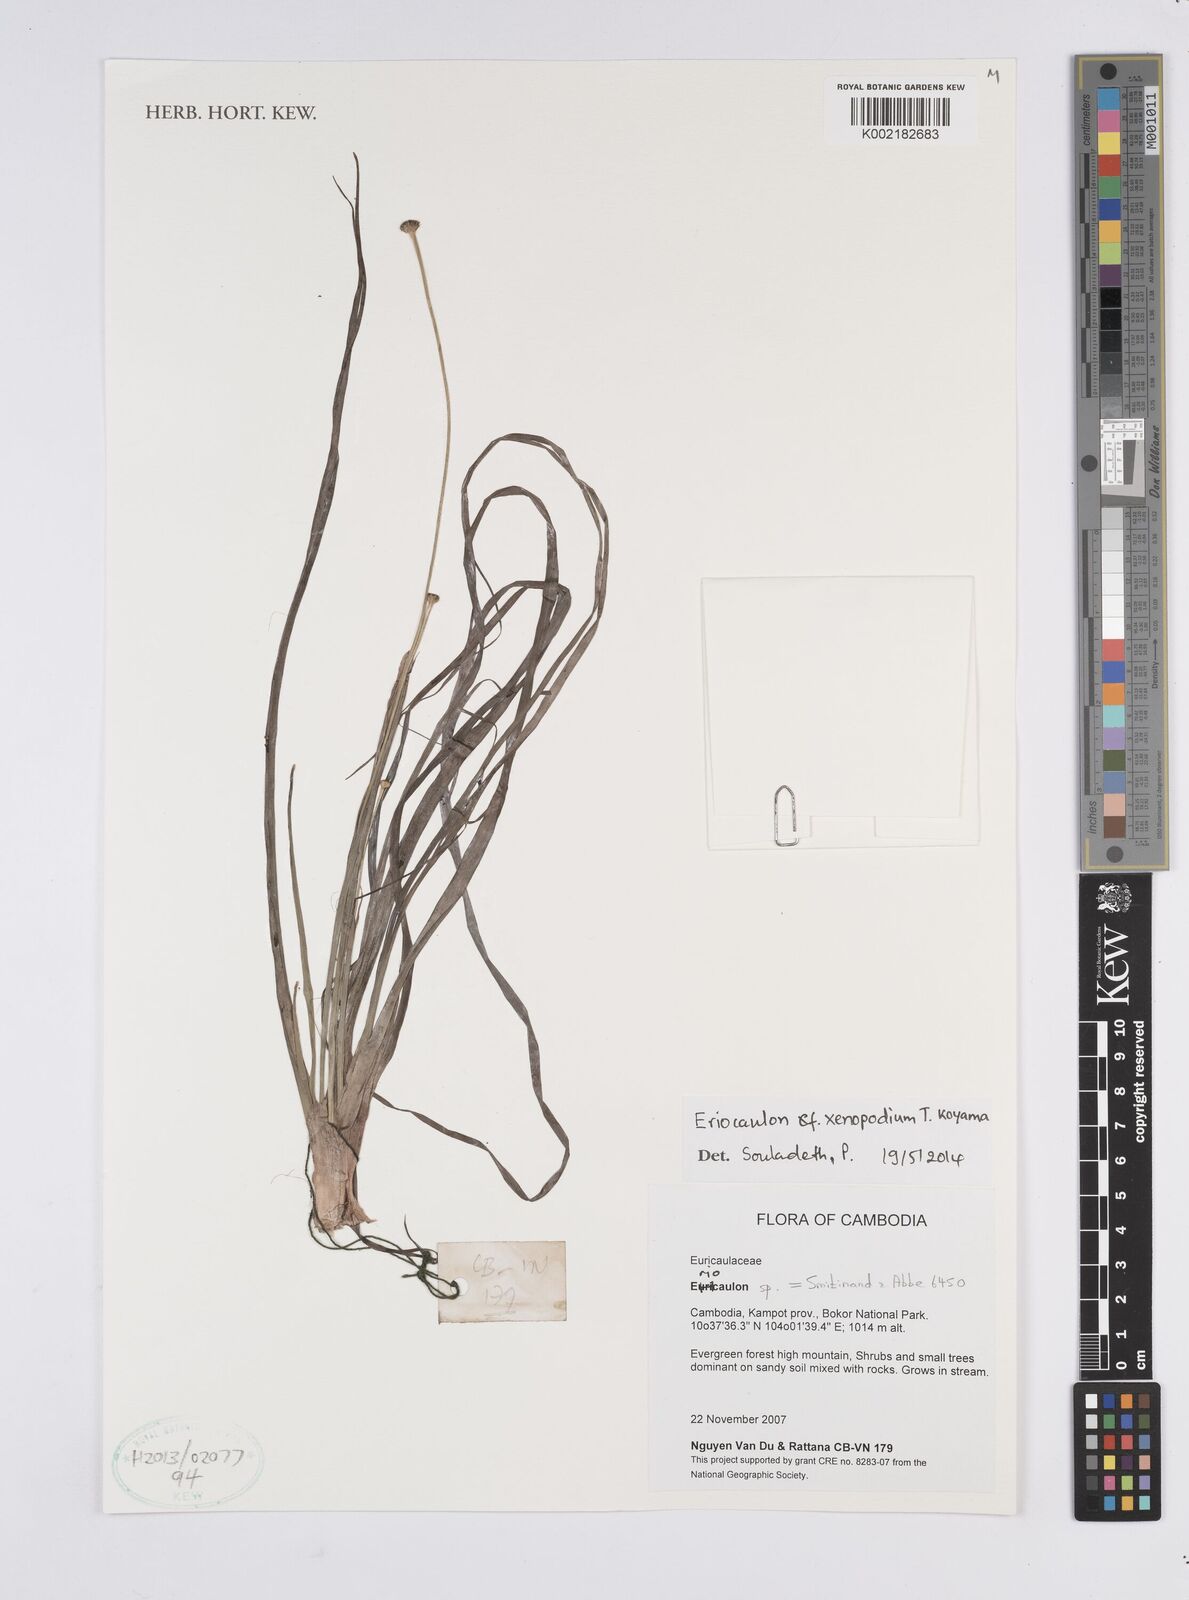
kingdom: Plantae
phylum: Tracheophyta
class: Liliopsida
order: Poales
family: Eriocaulaceae
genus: Eriocaulon
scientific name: Eriocaulon xenopodion
